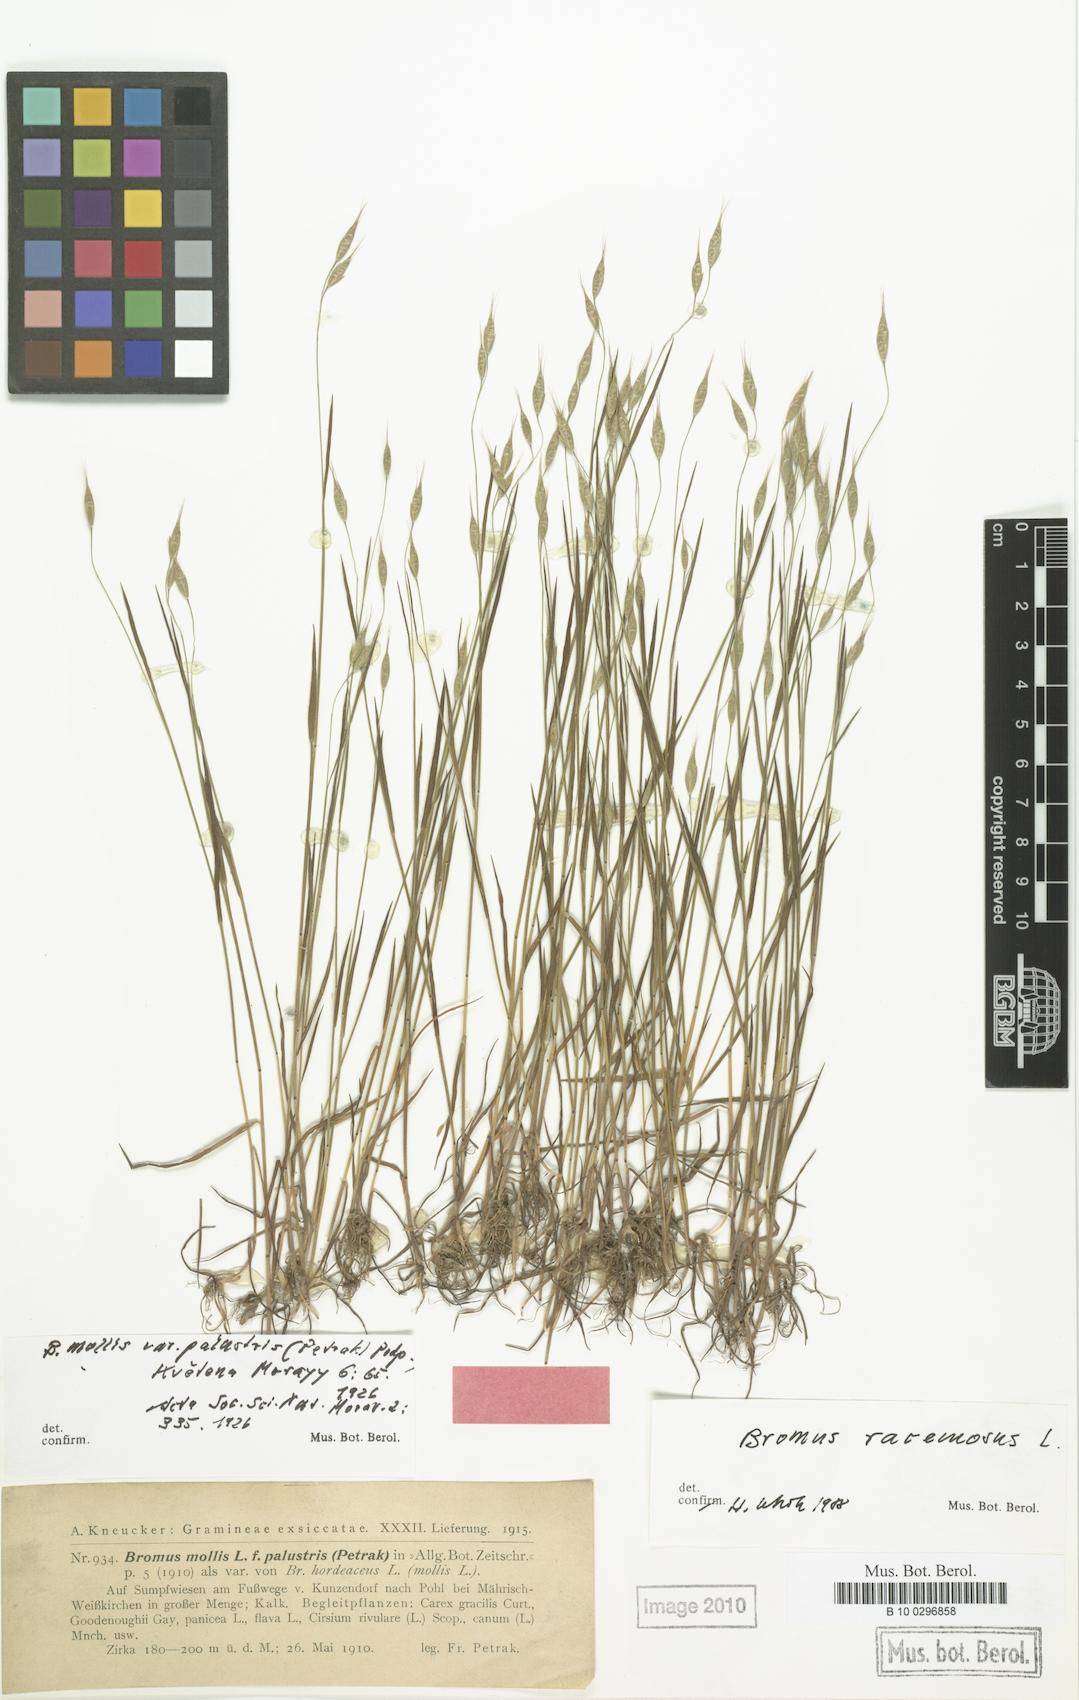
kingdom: Plantae
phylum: Tracheophyta
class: Liliopsida
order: Poales
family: Poaceae
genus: Bromus
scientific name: Bromus hordeaceus
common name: Soft brome
